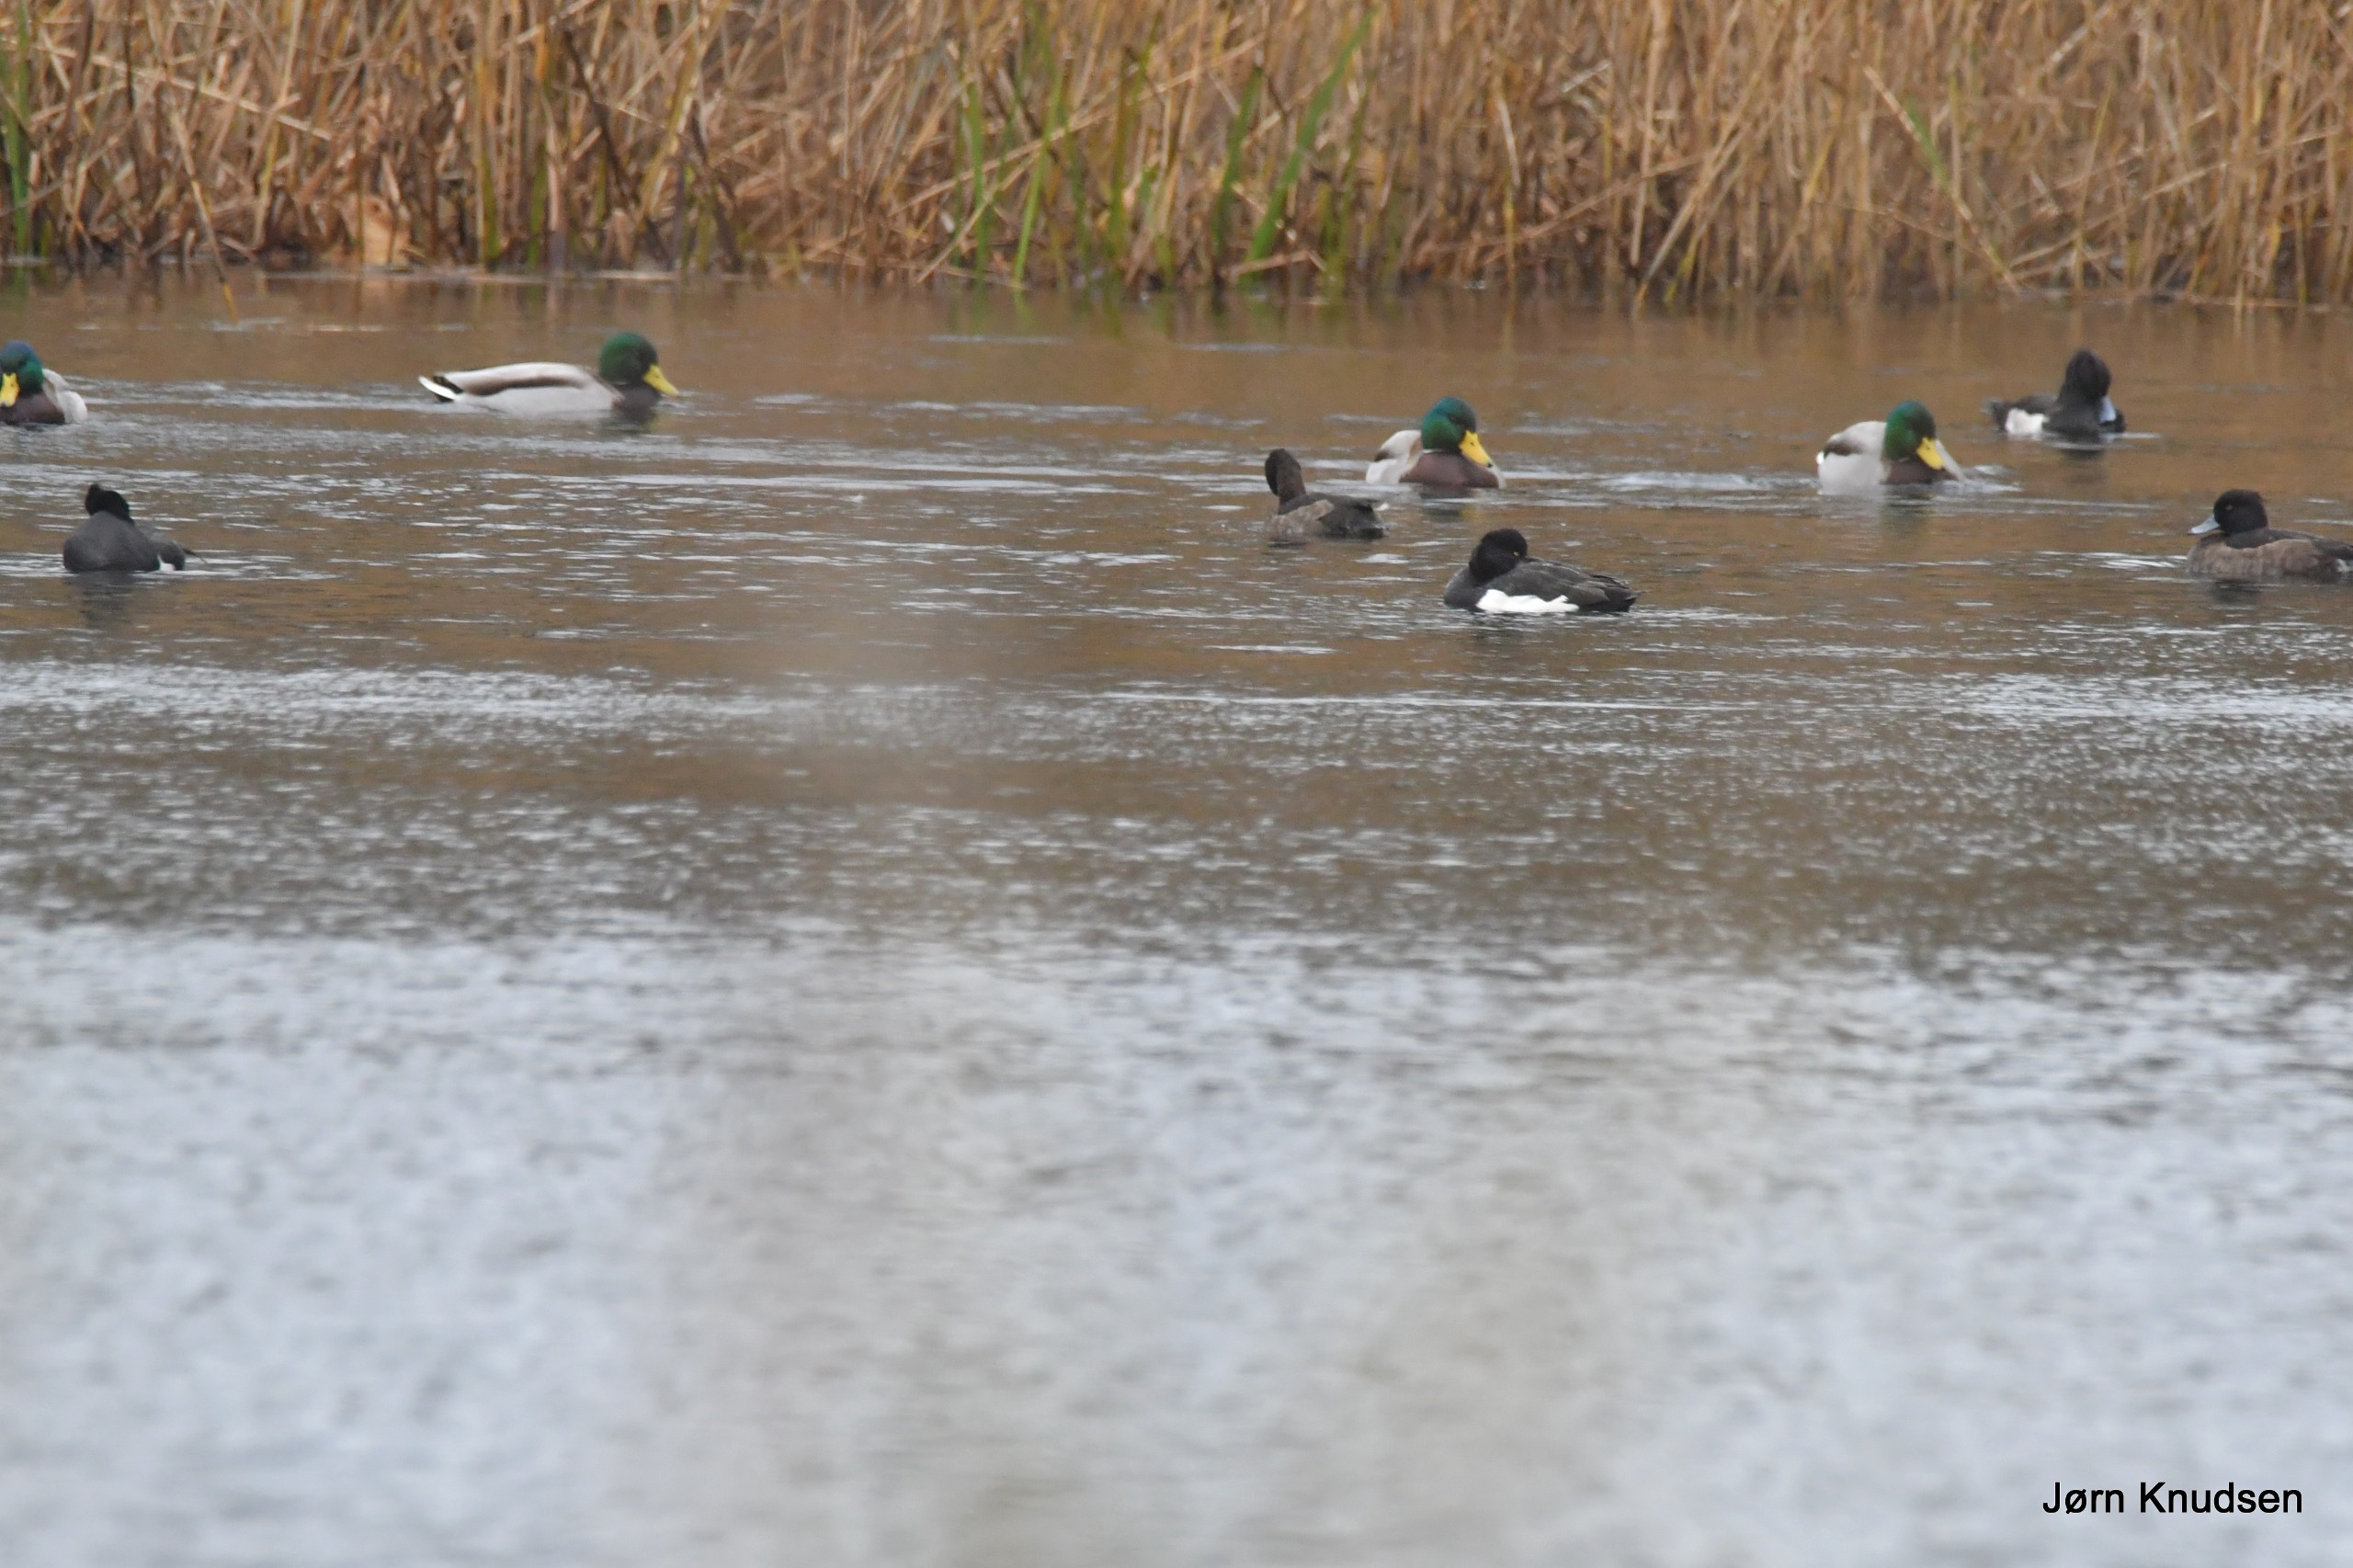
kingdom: Animalia
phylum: Chordata
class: Aves
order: Anseriformes
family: Anatidae
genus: Aythya
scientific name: Aythya fuligula
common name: Troldand
